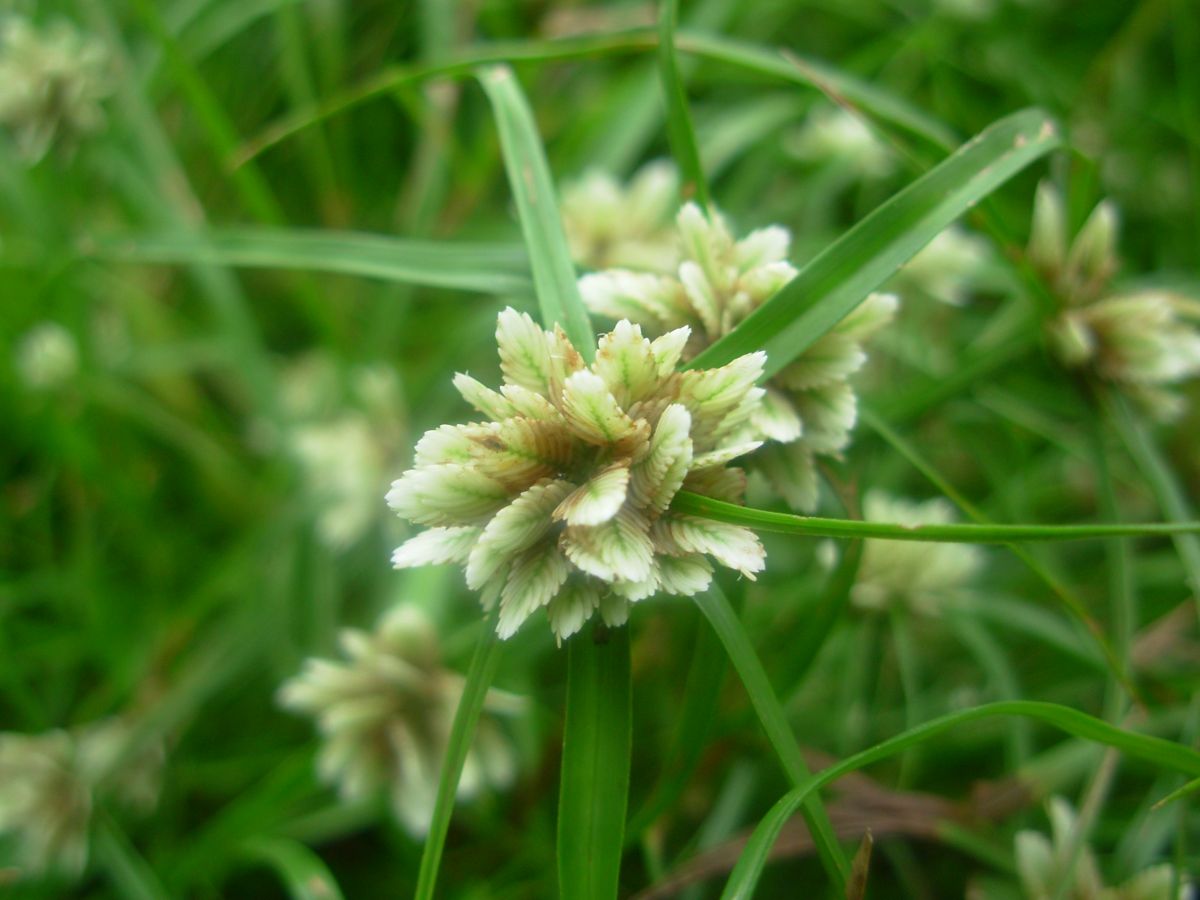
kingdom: Plantae
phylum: Tracheophyta
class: Liliopsida
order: Poales
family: Cyperaceae
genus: Cyperus
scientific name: Cyperus tenerrimus
